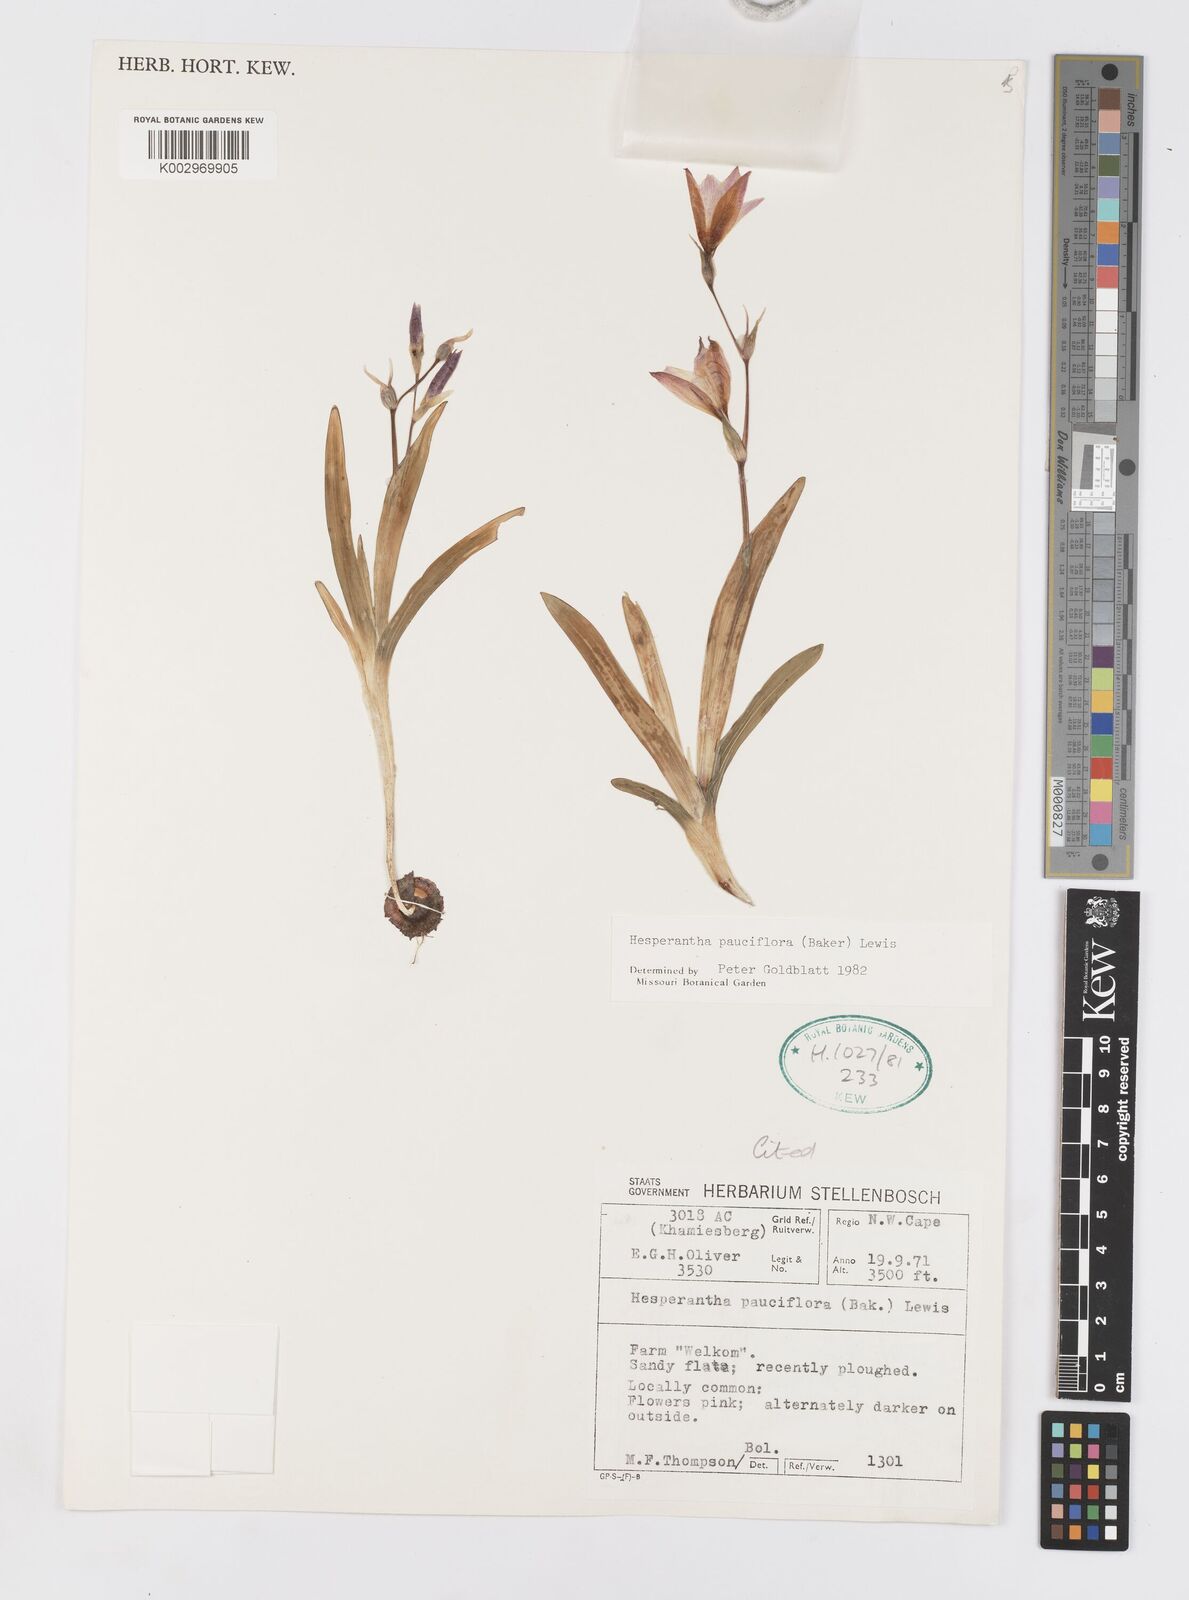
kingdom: Plantae
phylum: Tracheophyta
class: Liliopsida
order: Asparagales
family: Iridaceae
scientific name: Iridaceae
